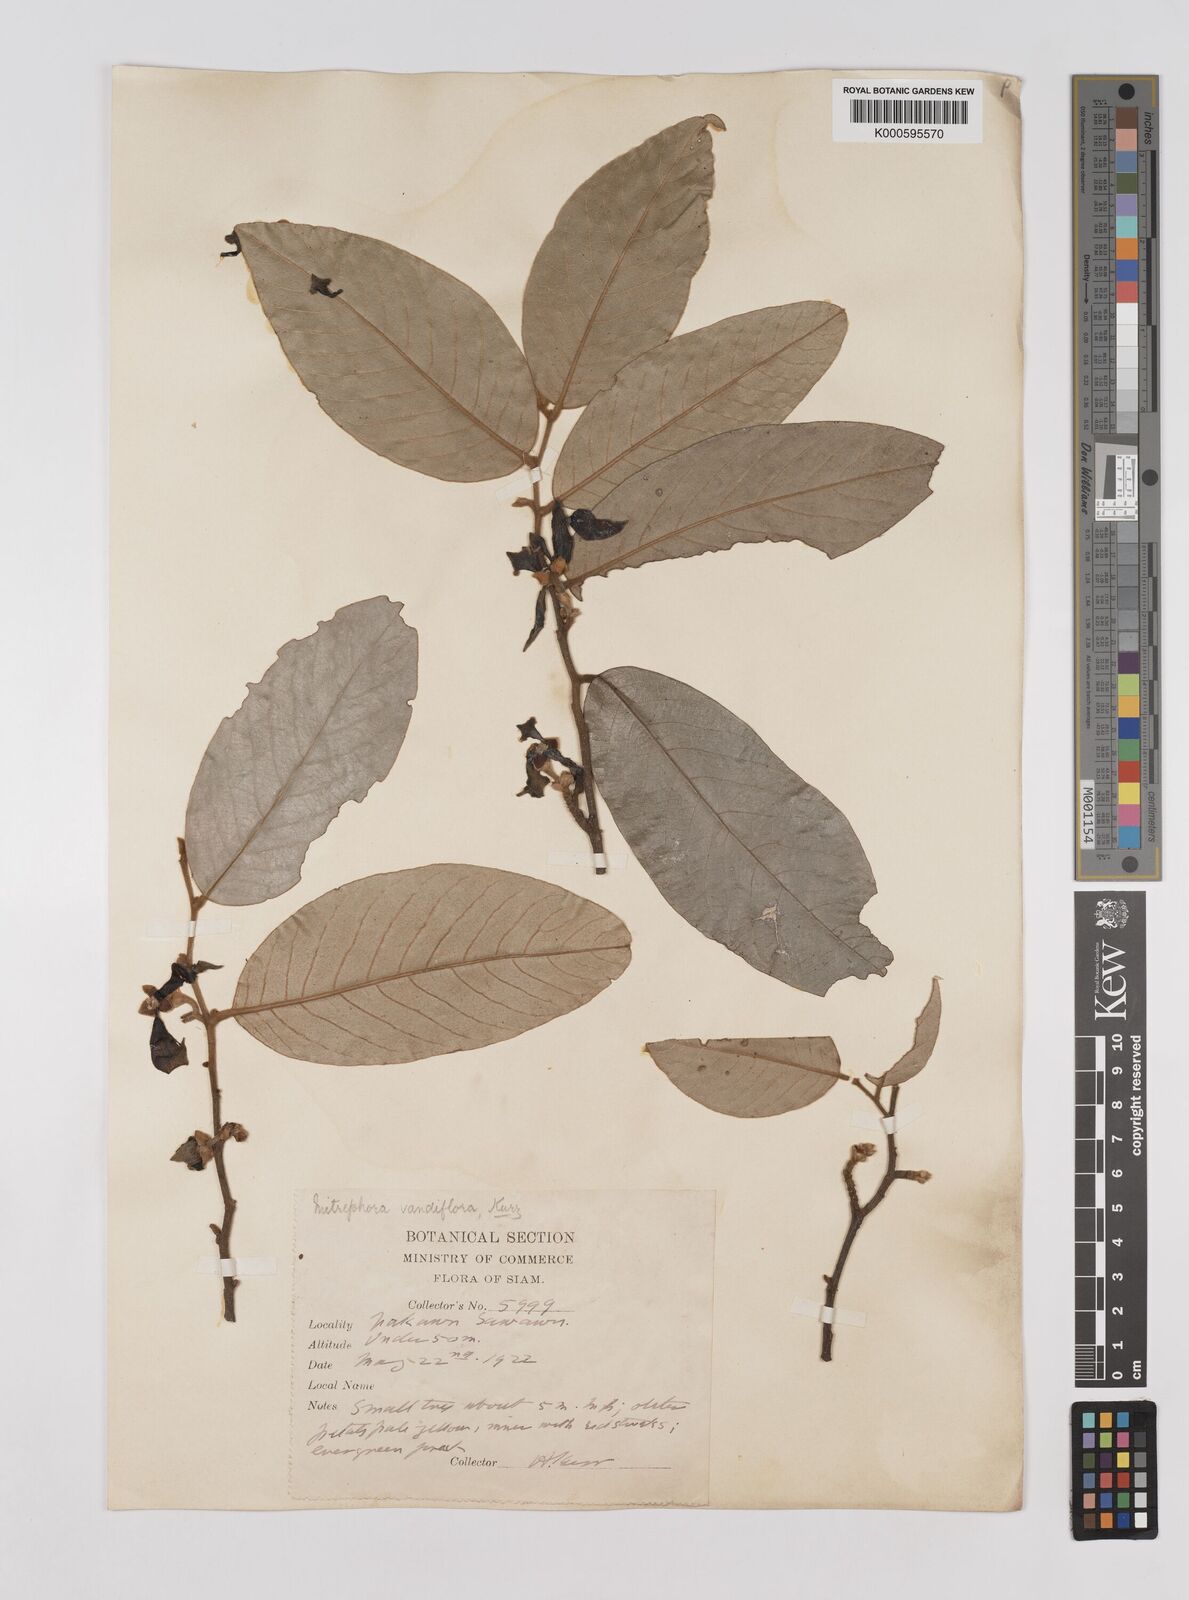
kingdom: Plantae
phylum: Tracheophyta
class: Magnoliopsida
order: Magnoliales
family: Annonaceae
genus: Mitrephora
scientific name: Mitrephora teysmannii
